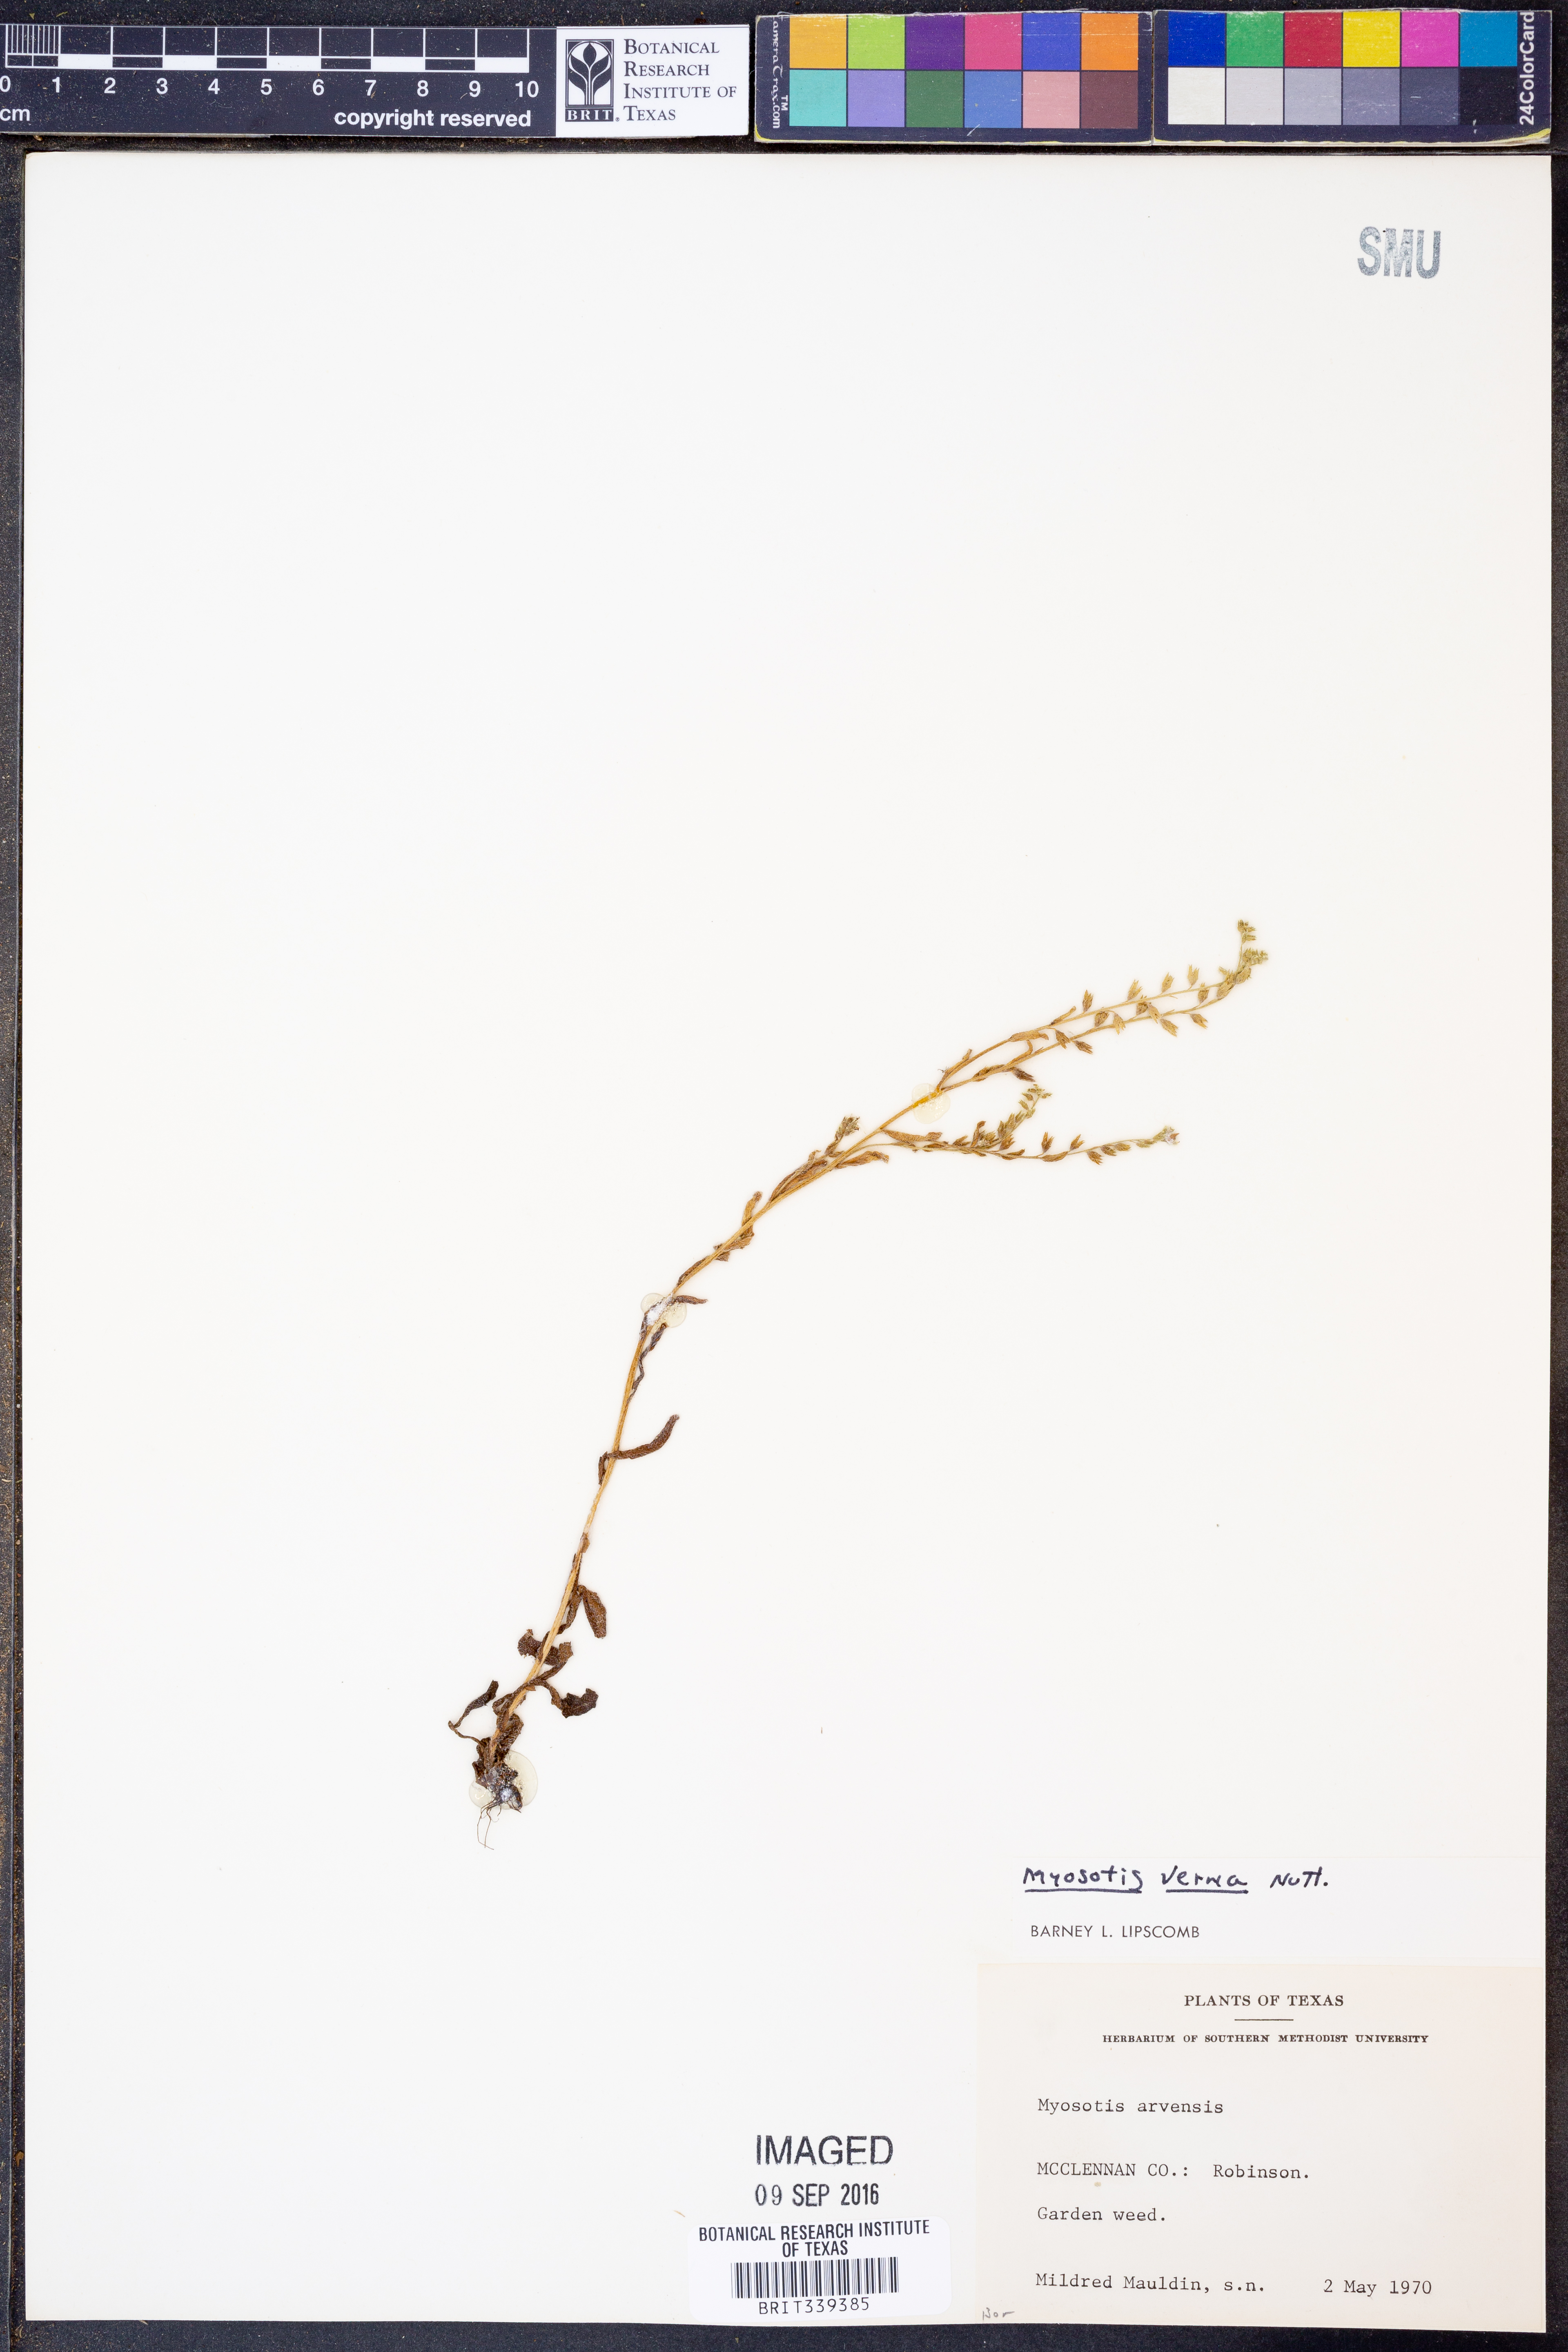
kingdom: Plantae
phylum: Tracheophyta
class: Magnoliopsida
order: Boraginales
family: Boraginaceae
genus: Myosotis
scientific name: Myosotis verna
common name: Early forget-me-not
